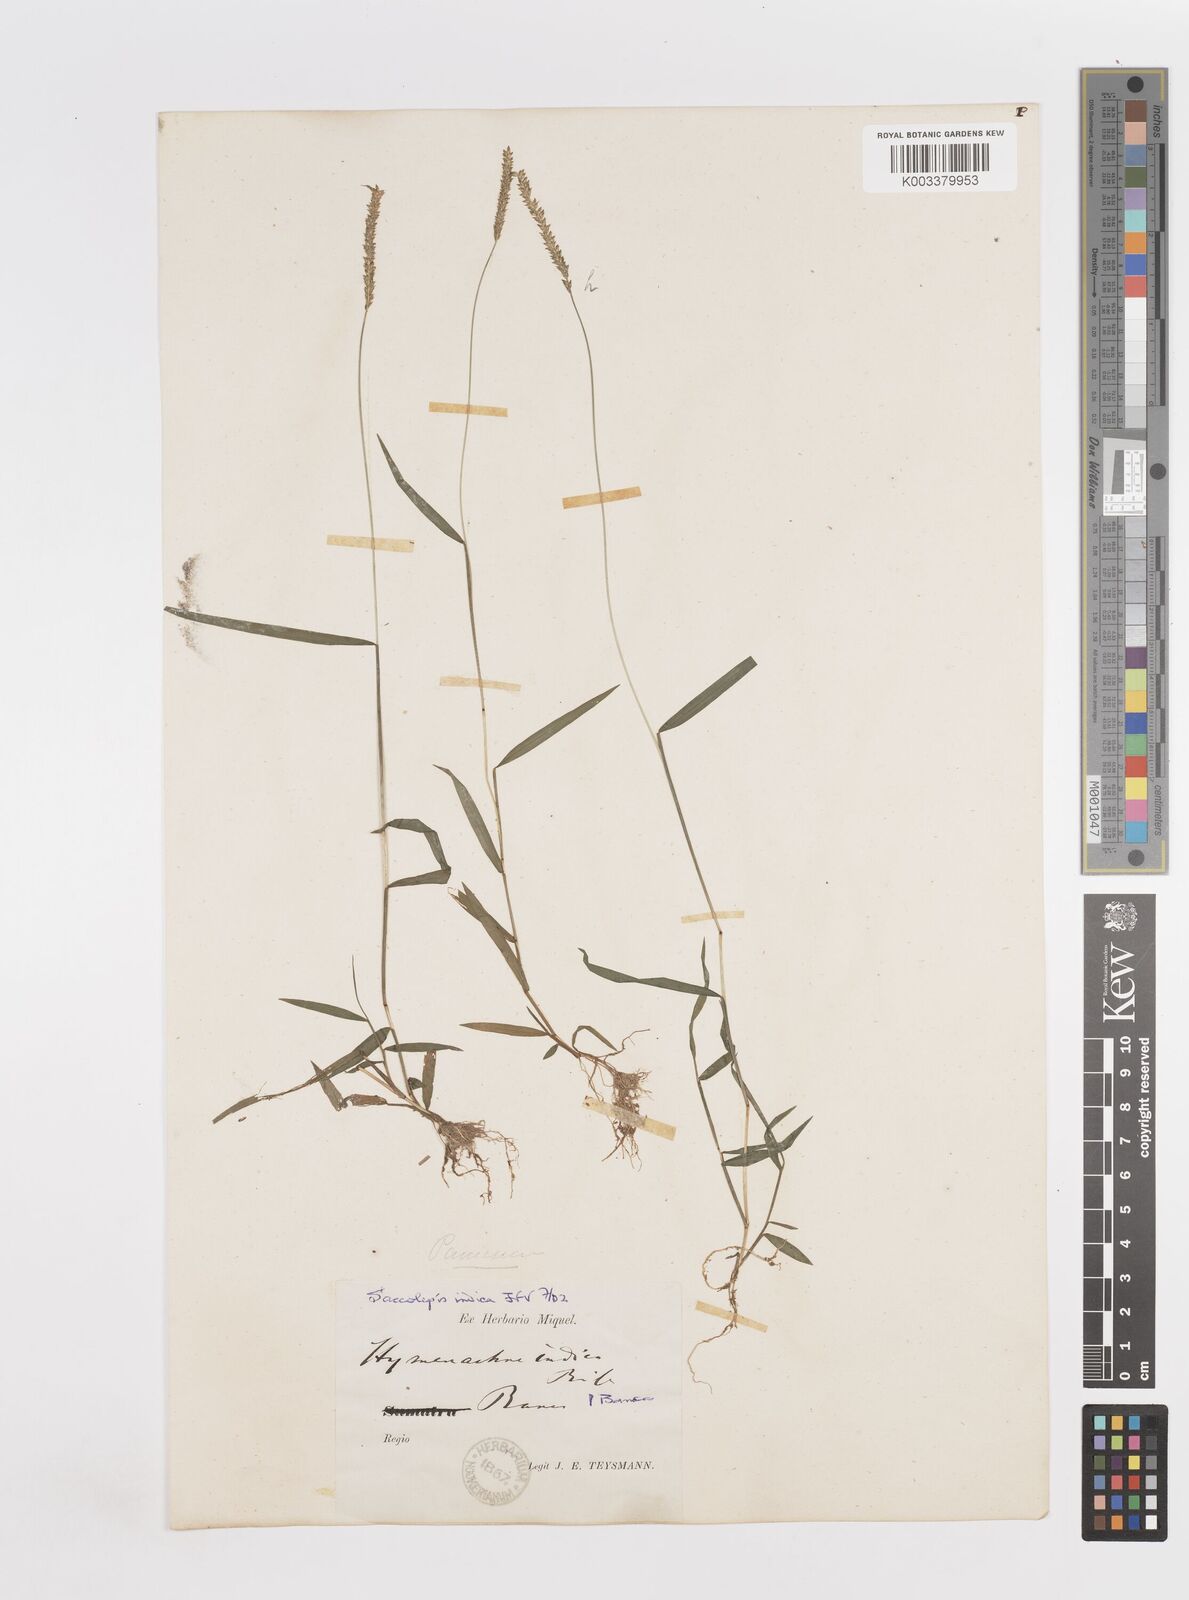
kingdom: Plantae
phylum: Tracheophyta
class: Liliopsida
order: Poales
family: Poaceae
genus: Sacciolepis
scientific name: Sacciolepis indica
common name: Glenwoodgrass
